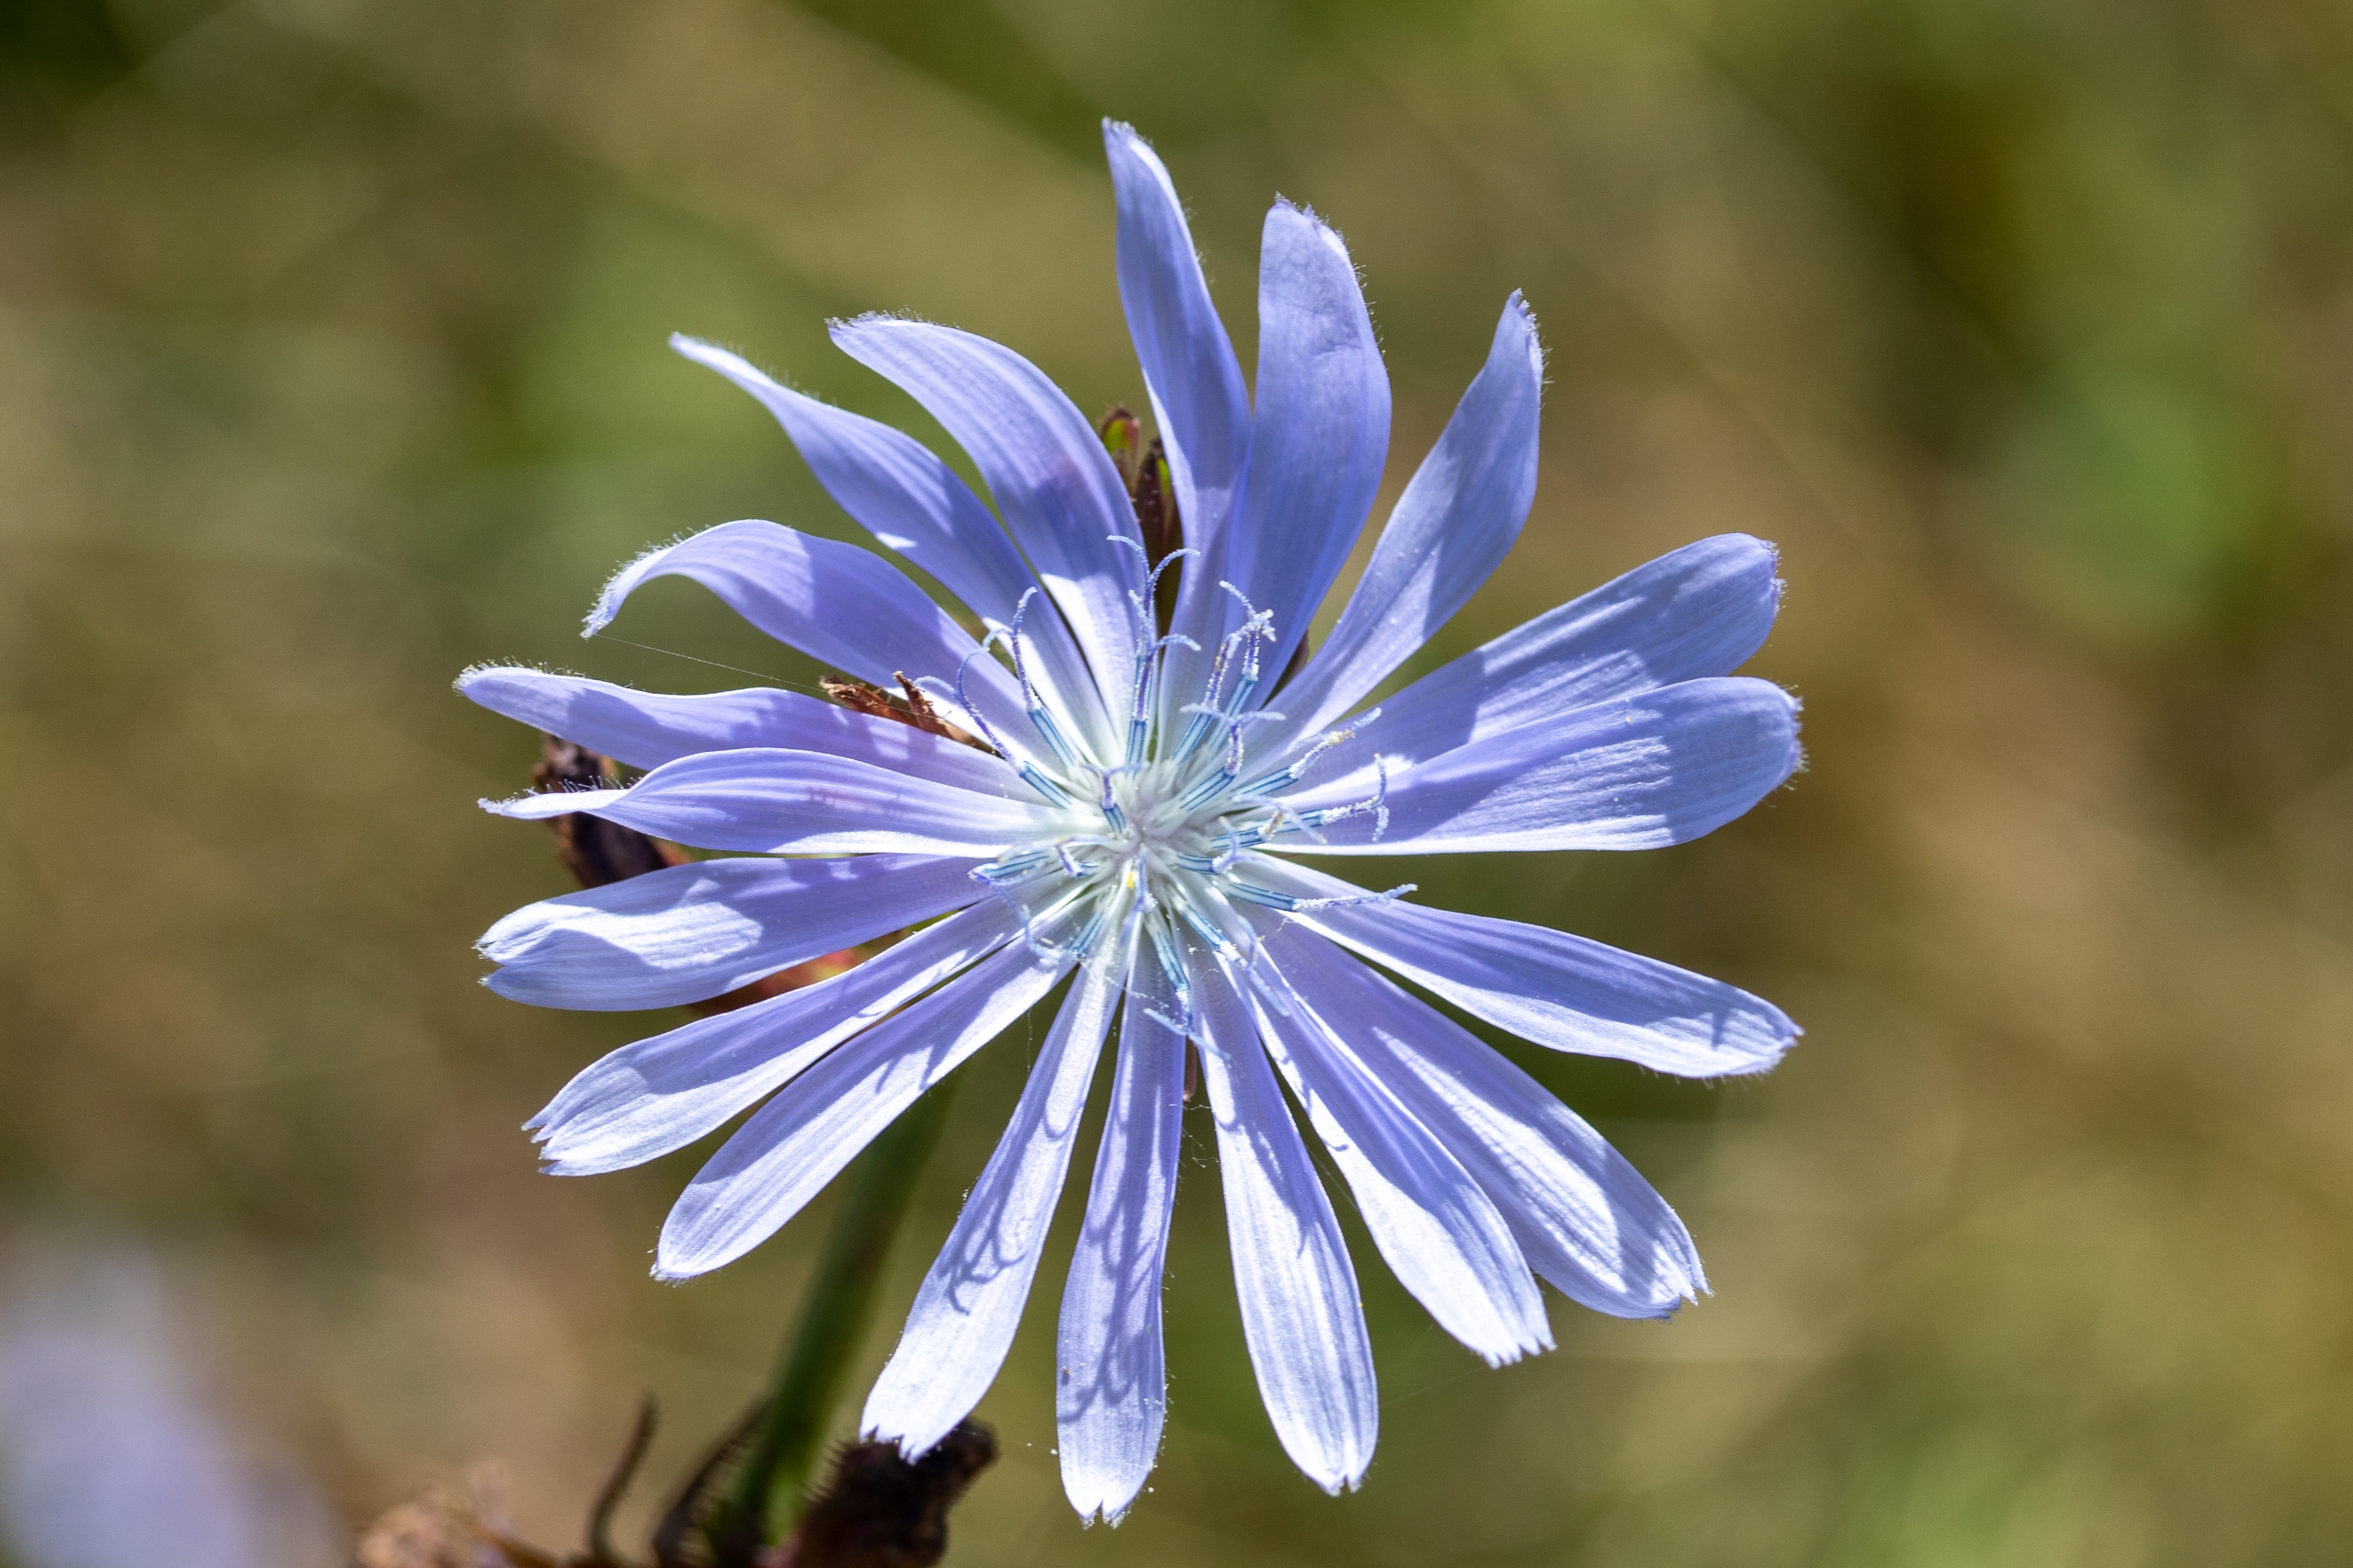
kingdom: Plantae
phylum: Tracheophyta
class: Magnoliopsida
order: Asterales
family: Asteraceae
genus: Cichorium
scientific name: Cichorium intybus
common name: Cikorie
